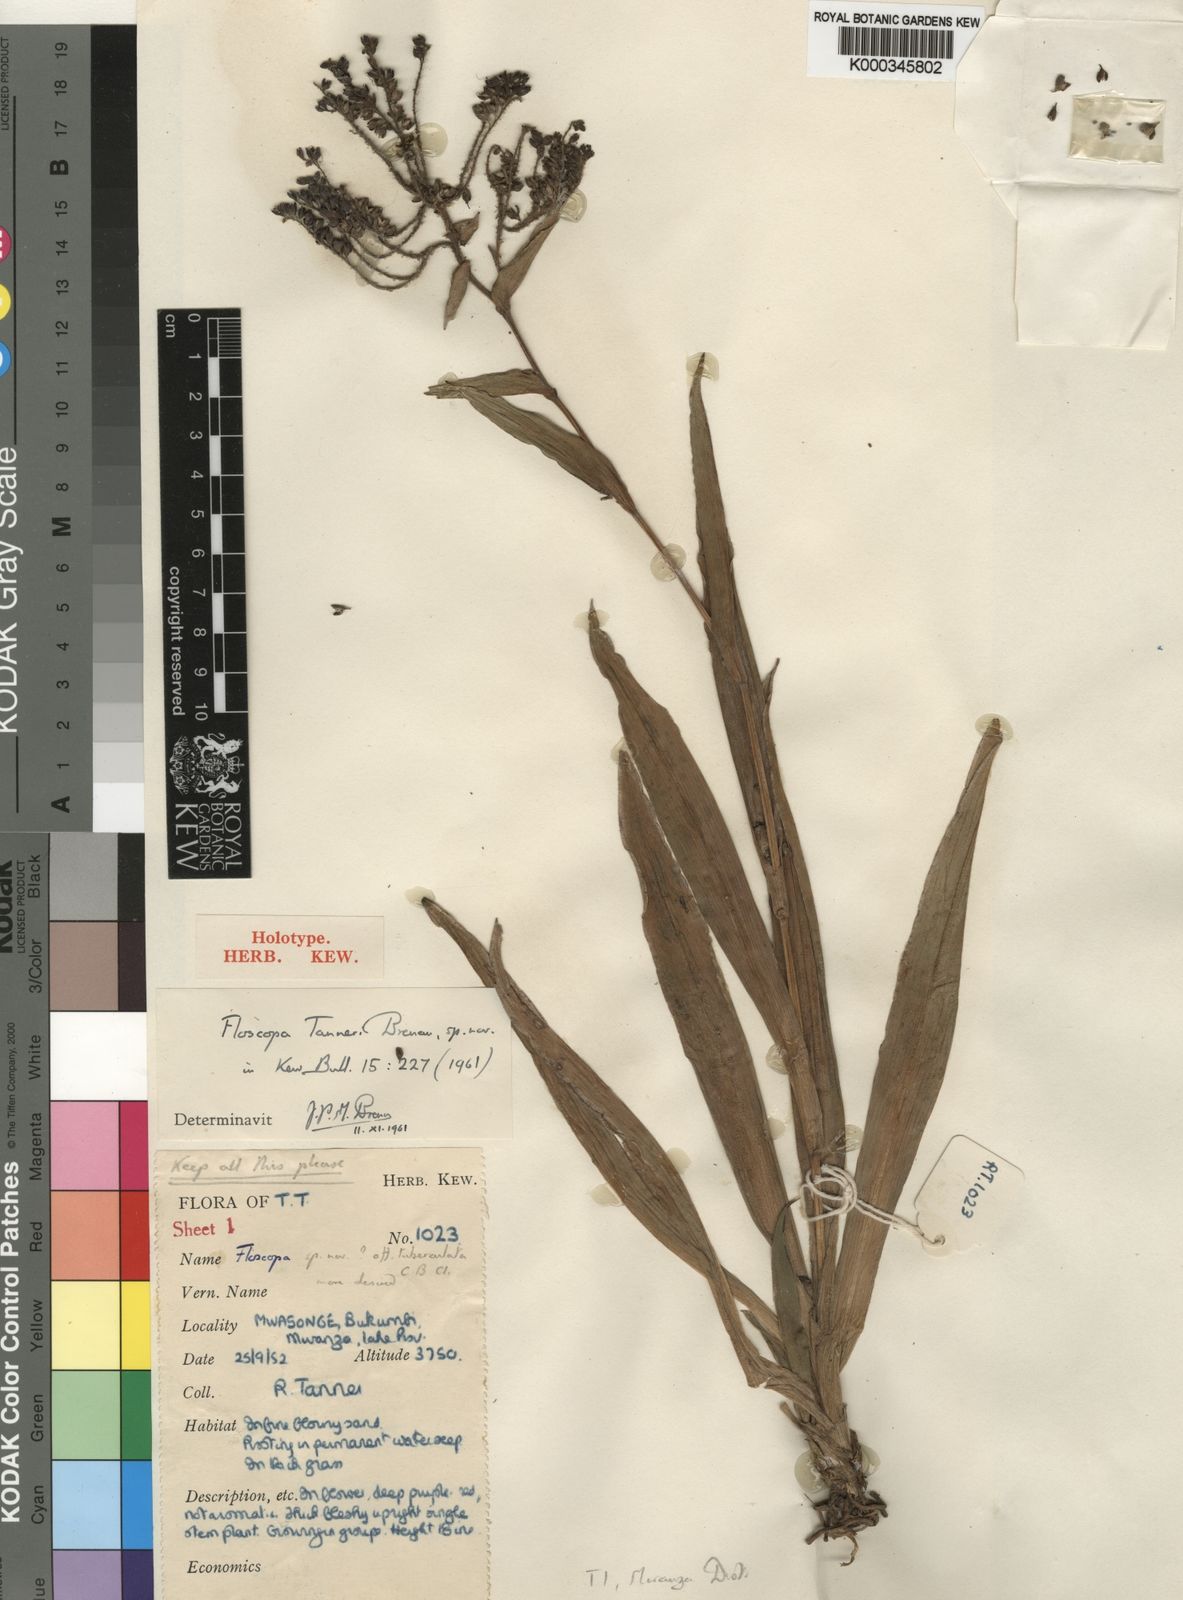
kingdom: Plantae
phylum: Tracheophyta
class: Liliopsida
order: Commelinales
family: Commelinaceae
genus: Floscopa
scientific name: Floscopa tanneri
